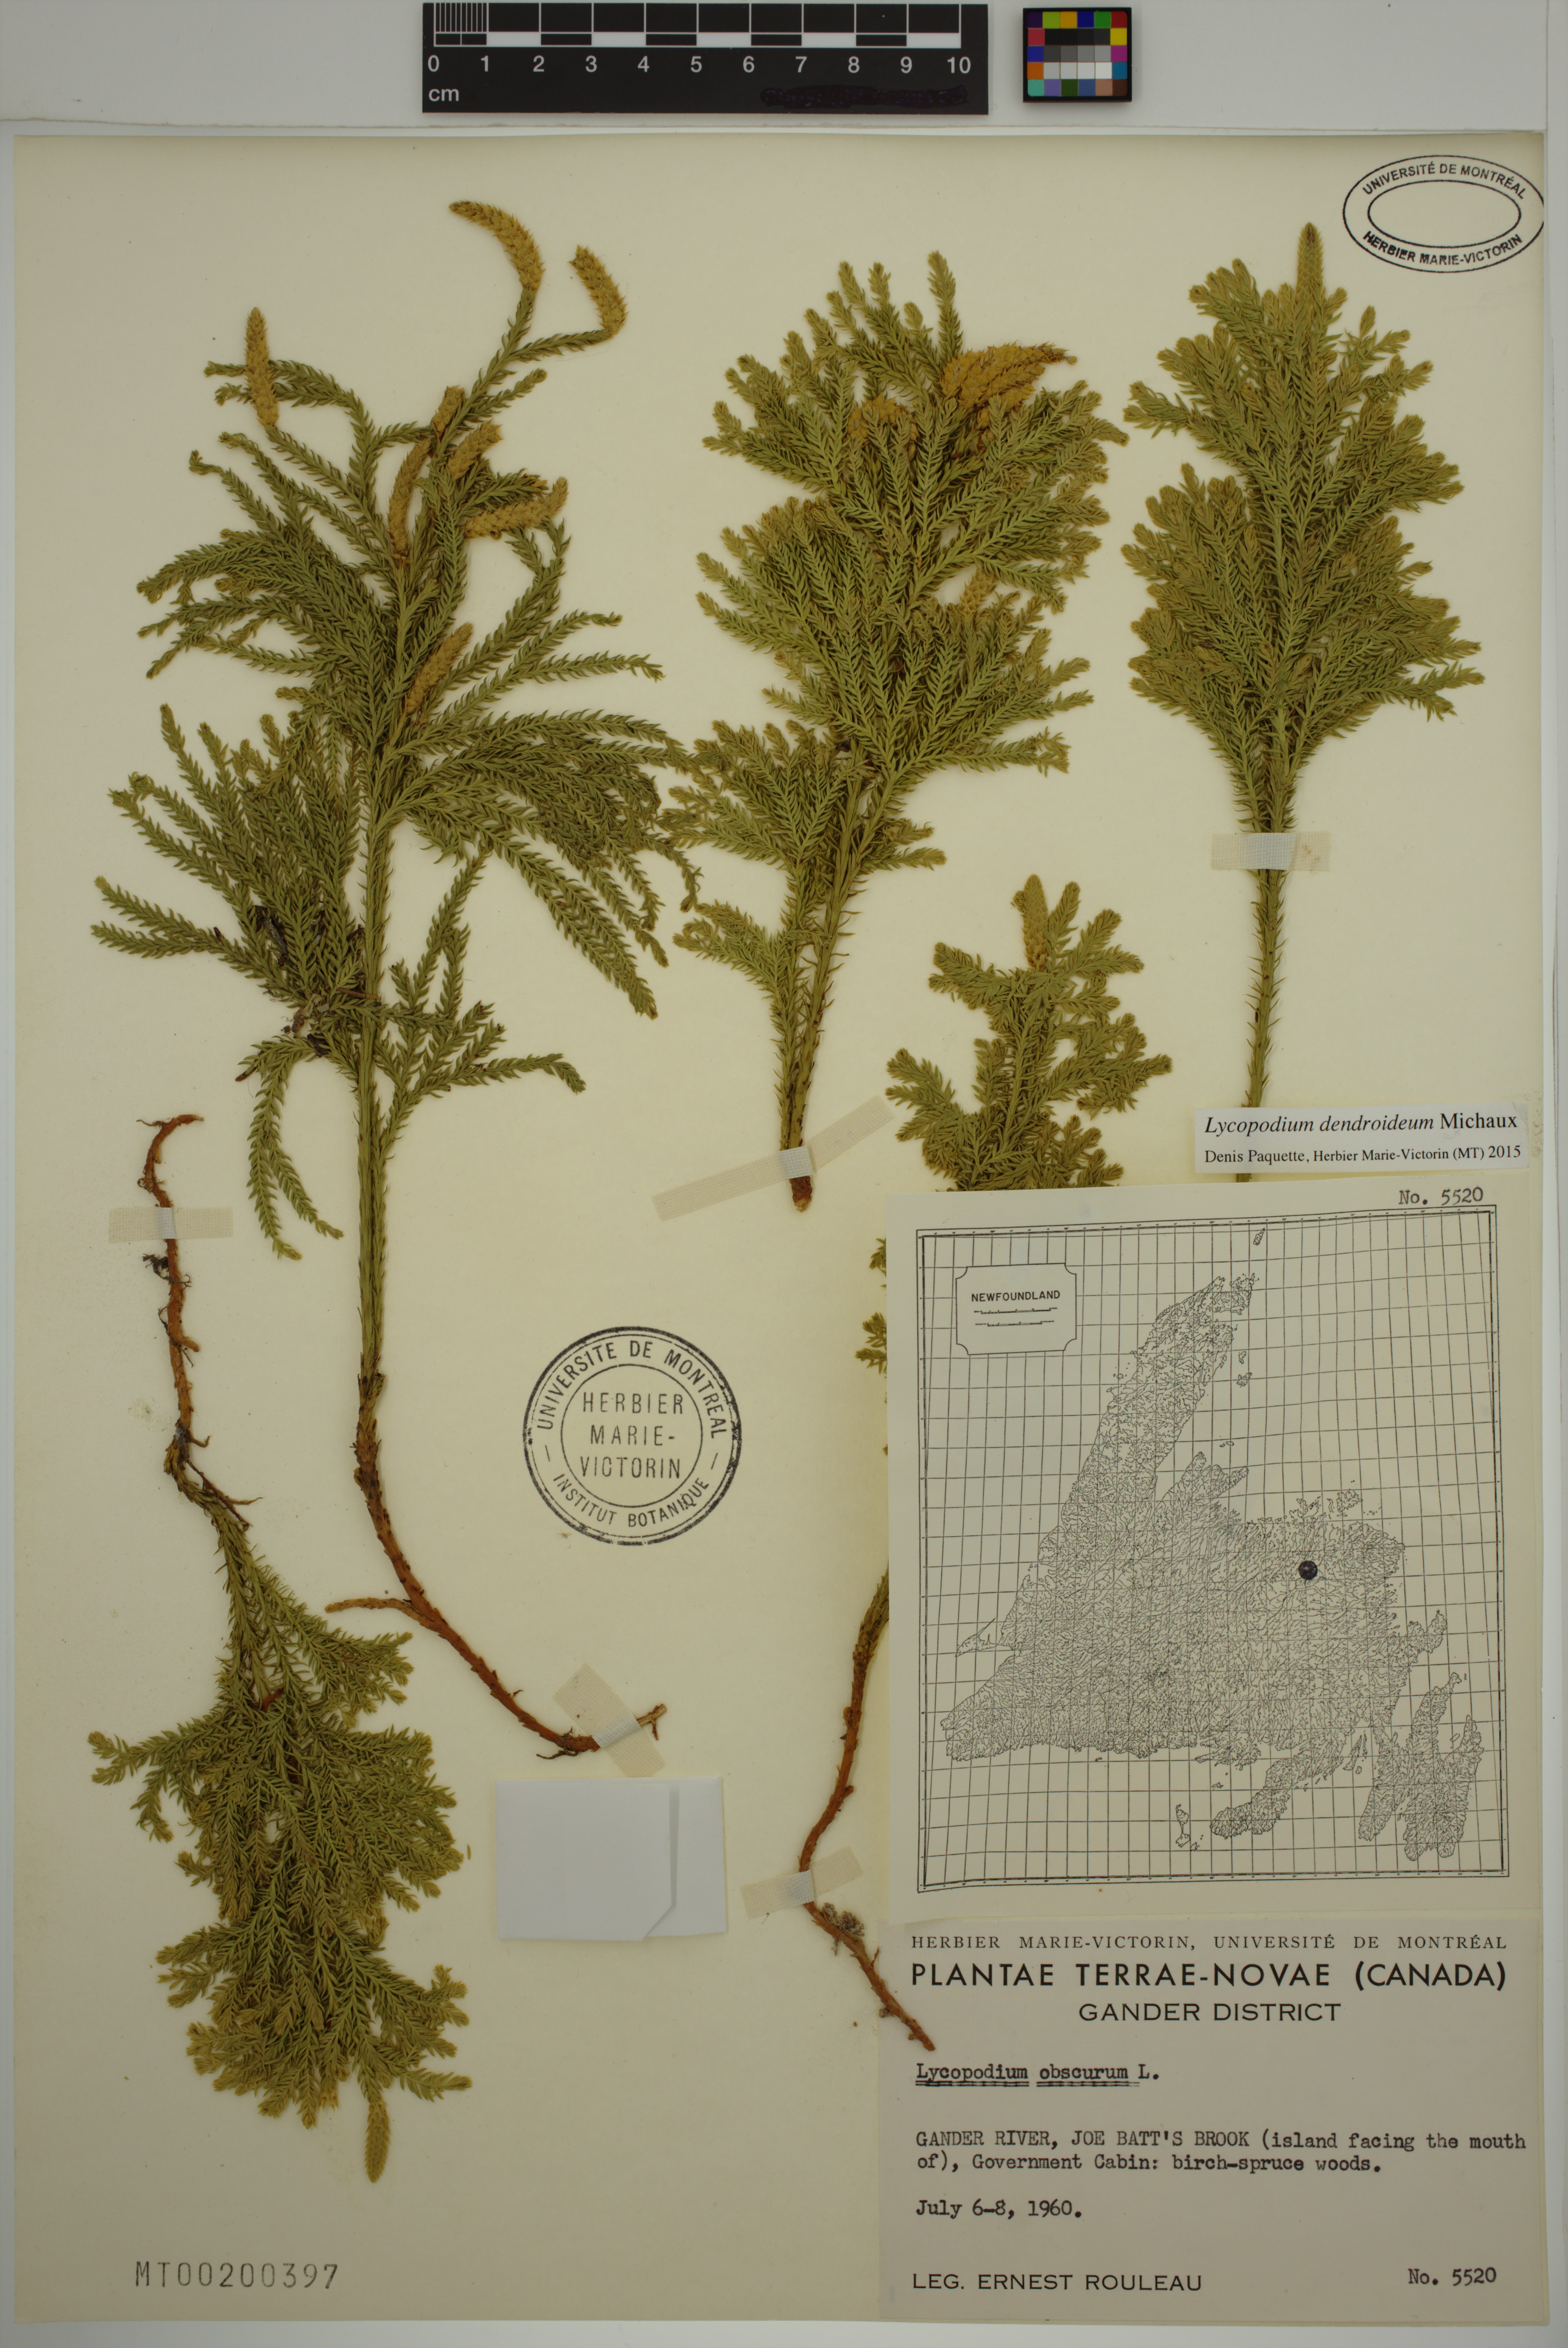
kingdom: Plantae
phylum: Tracheophyta
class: Lycopodiopsida
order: Lycopodiales
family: Lycopodiaceae
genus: Dendrolycopodium
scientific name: Dendrolycopodium dendroideum
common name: Northern tree-clubmoss
